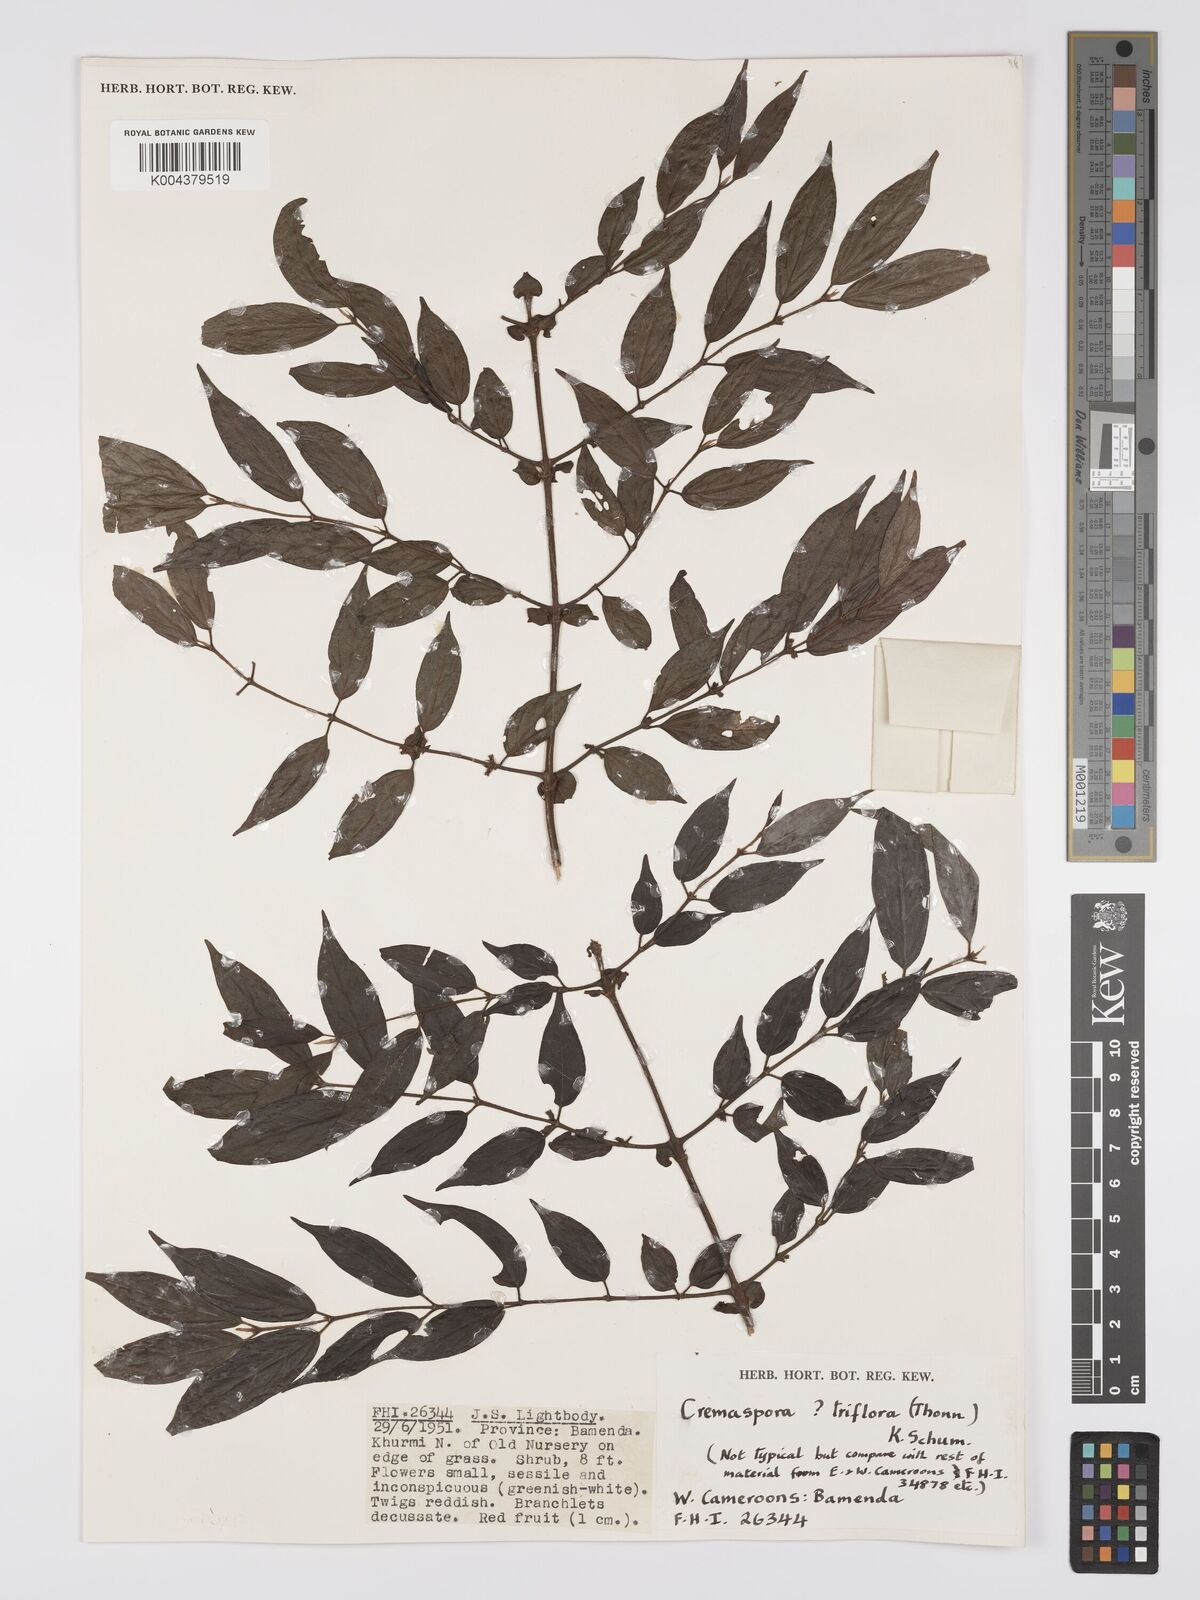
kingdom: Plantae
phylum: Tracheophyta
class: Magnoliopsida
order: Gentianales
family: Rubiaceae
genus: Cremaspora
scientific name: Cremaspora triflora
